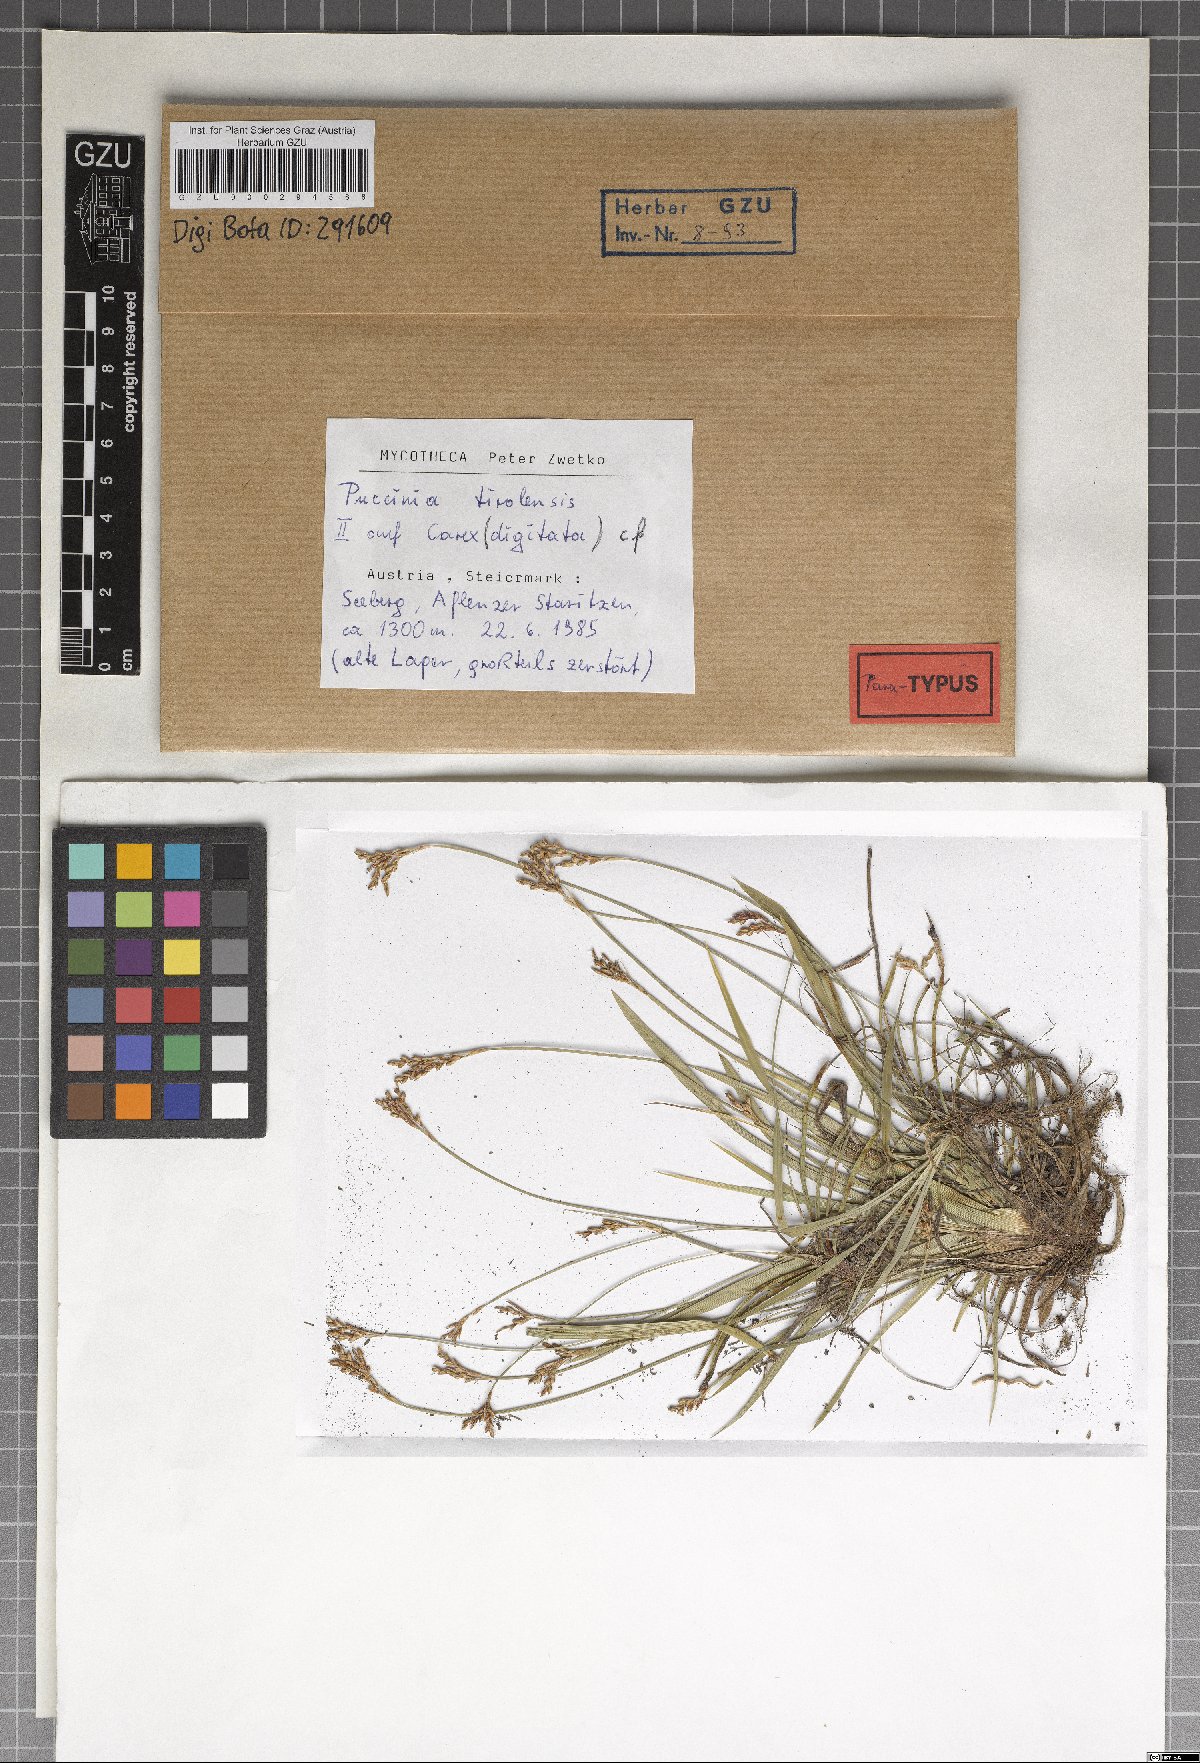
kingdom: Fungi
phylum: Basidiomycota
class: Pucciniomycetes
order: Pucciniales
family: Pucciniaceae
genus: Puccinia
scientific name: Puccinia tirolensis
